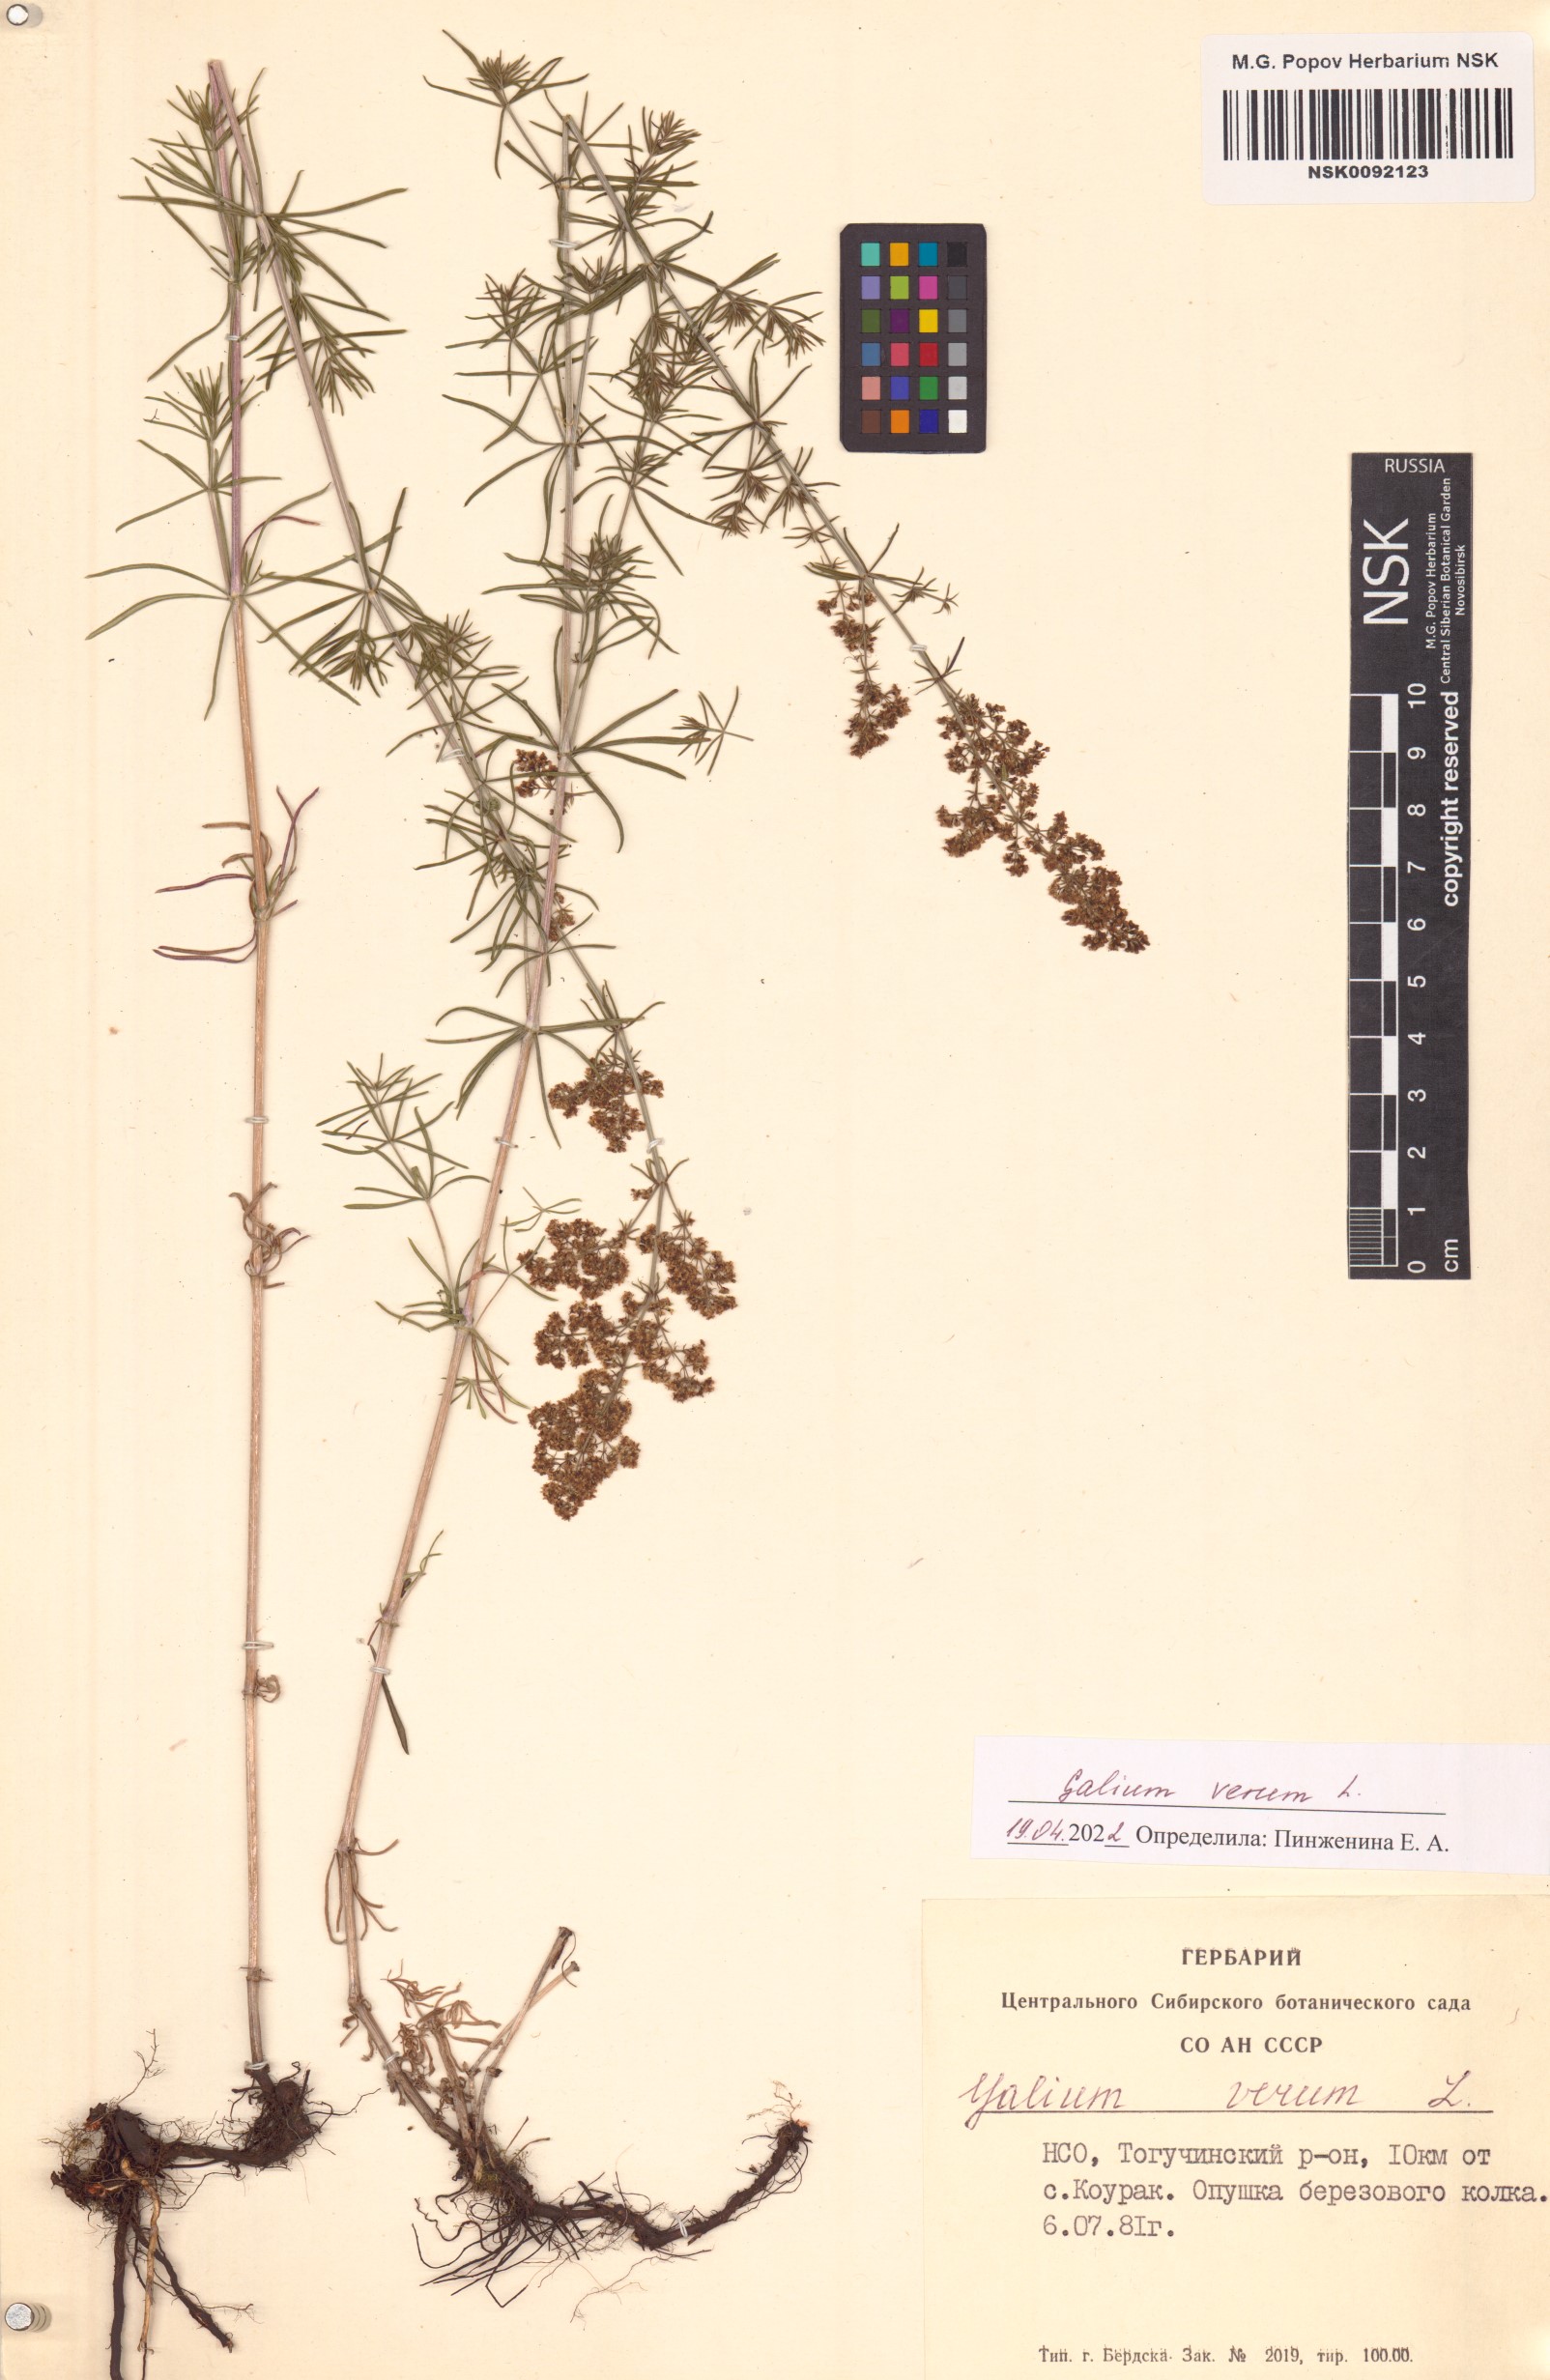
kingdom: Plantae
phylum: Tracheophyta
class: Magnoliopsida
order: Gentianales
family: Rubiaceae
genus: Galium
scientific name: Galium verum
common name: Lady's bedstraw
